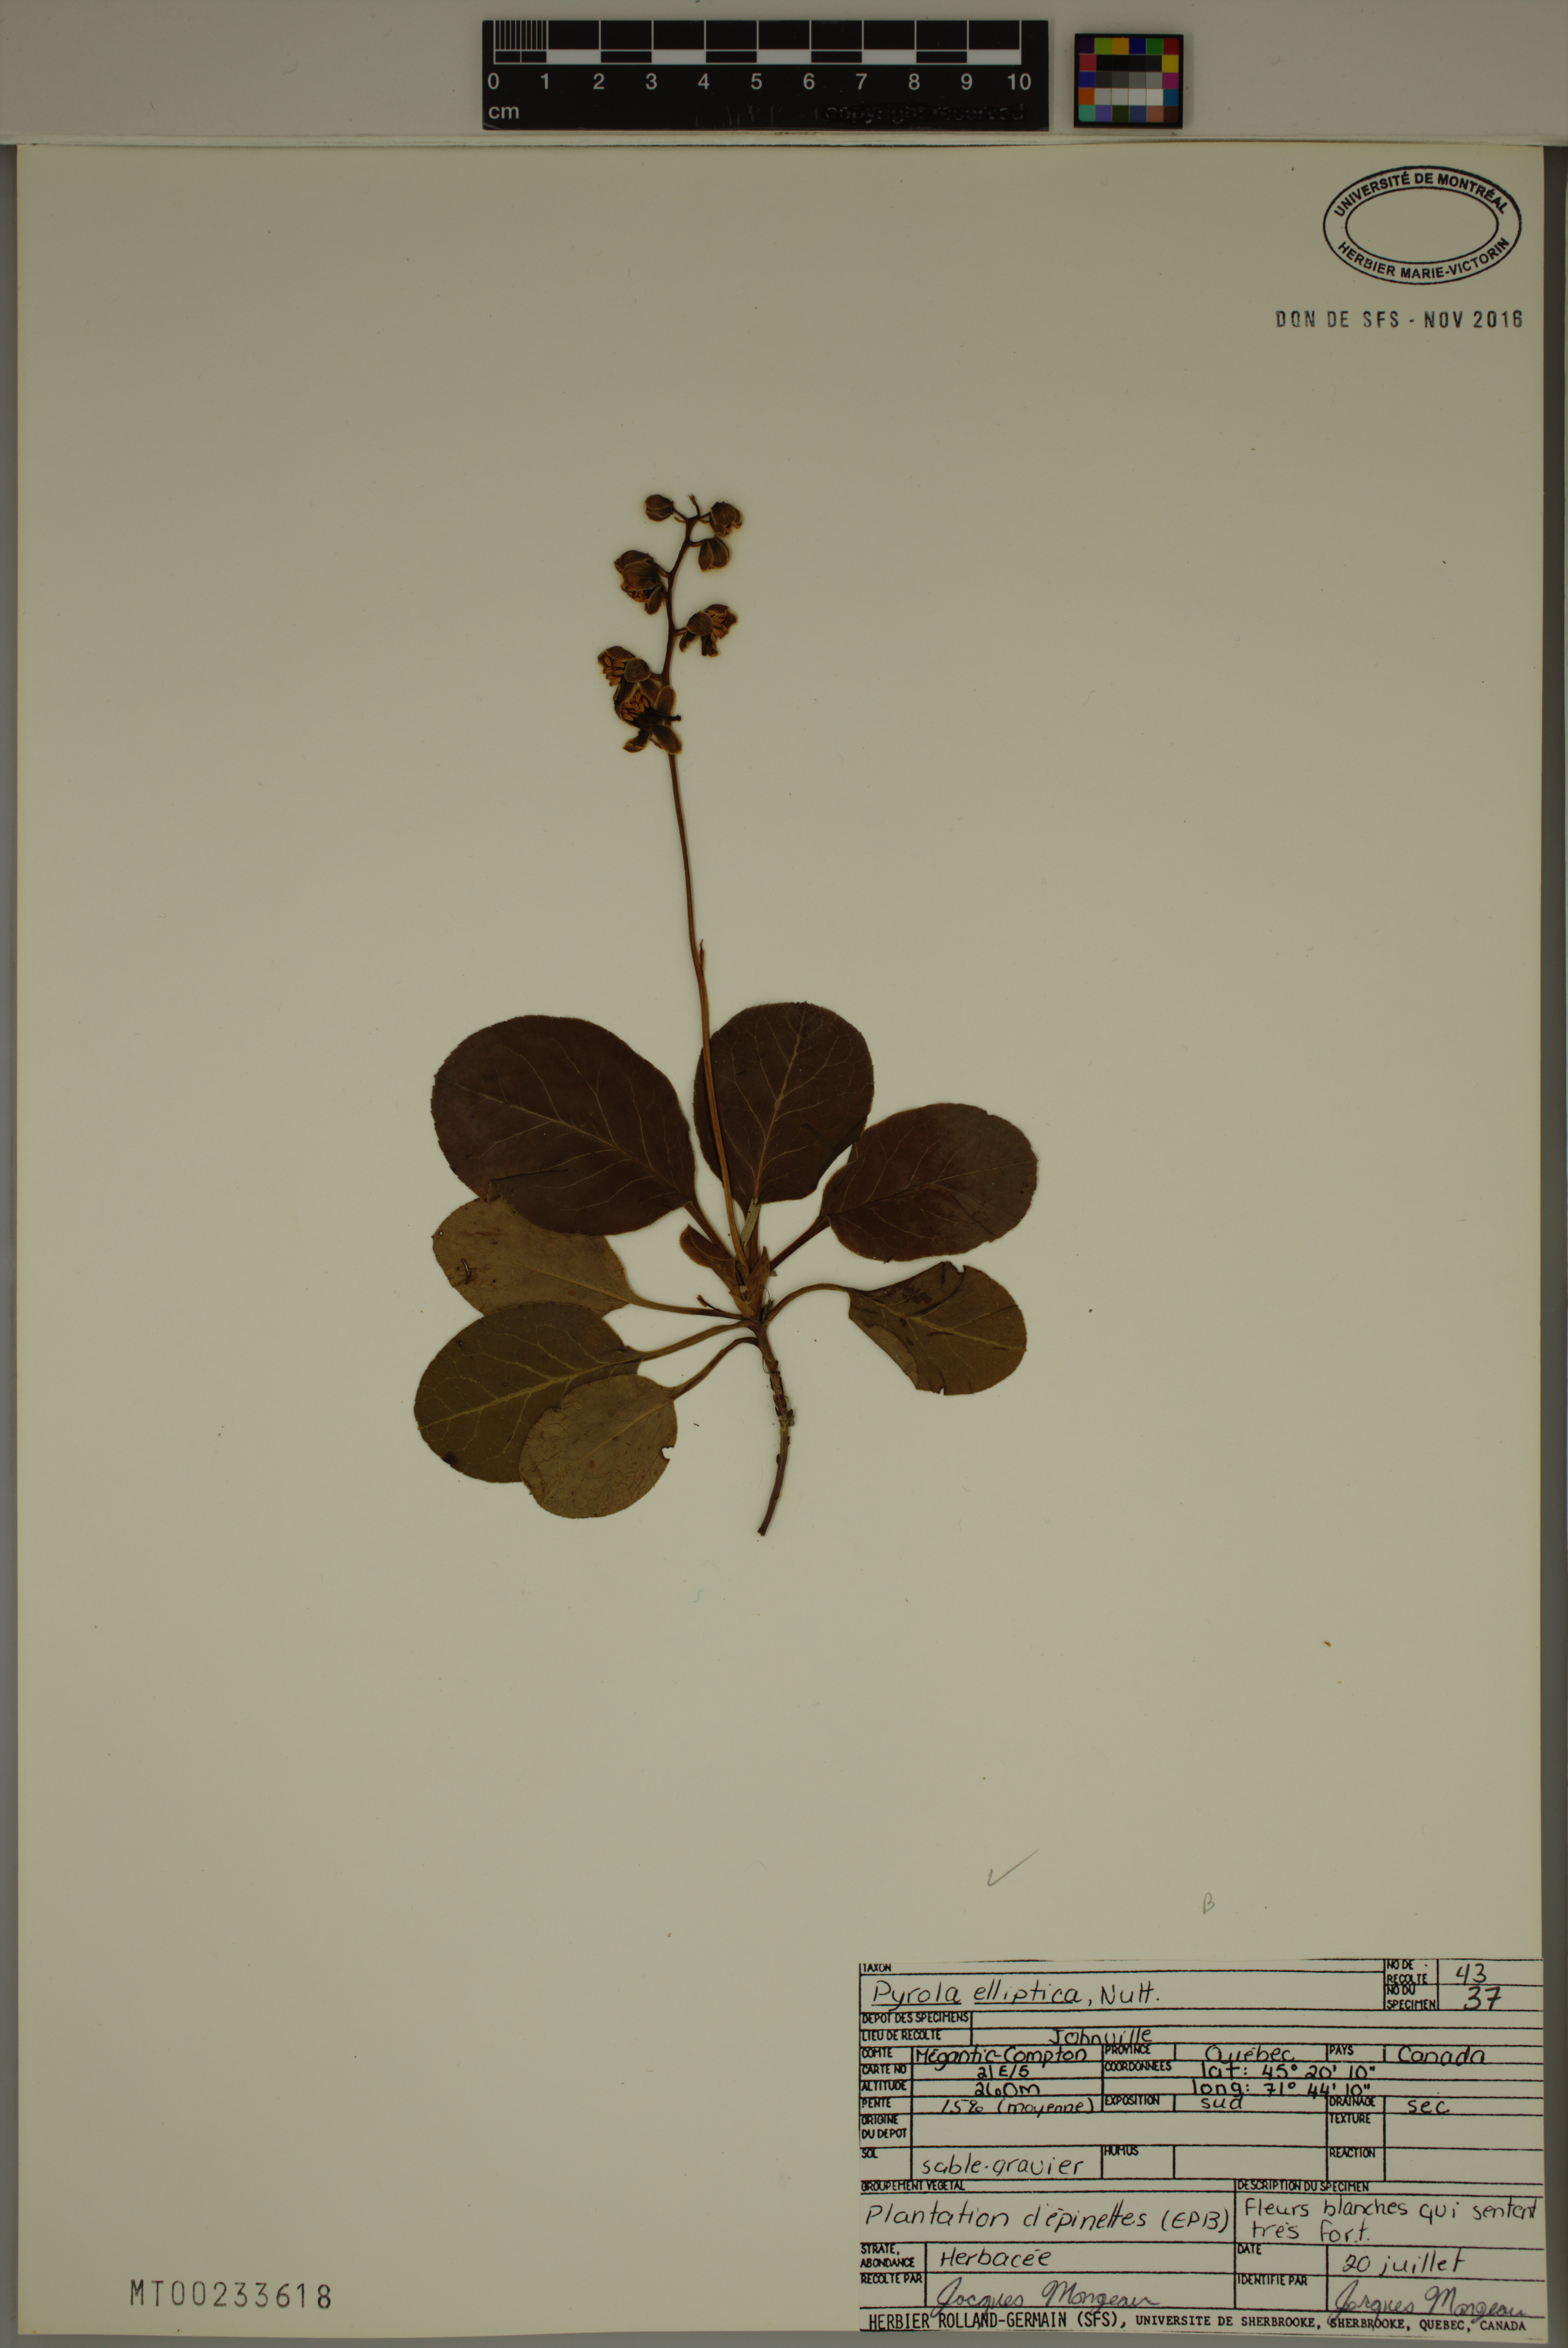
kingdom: Plantae
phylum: Tracheophyta
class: Magnoliopsida
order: Ericales
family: Ericaceae
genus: Pyrola
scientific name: Pyrola elliptica
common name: Shinleaf
